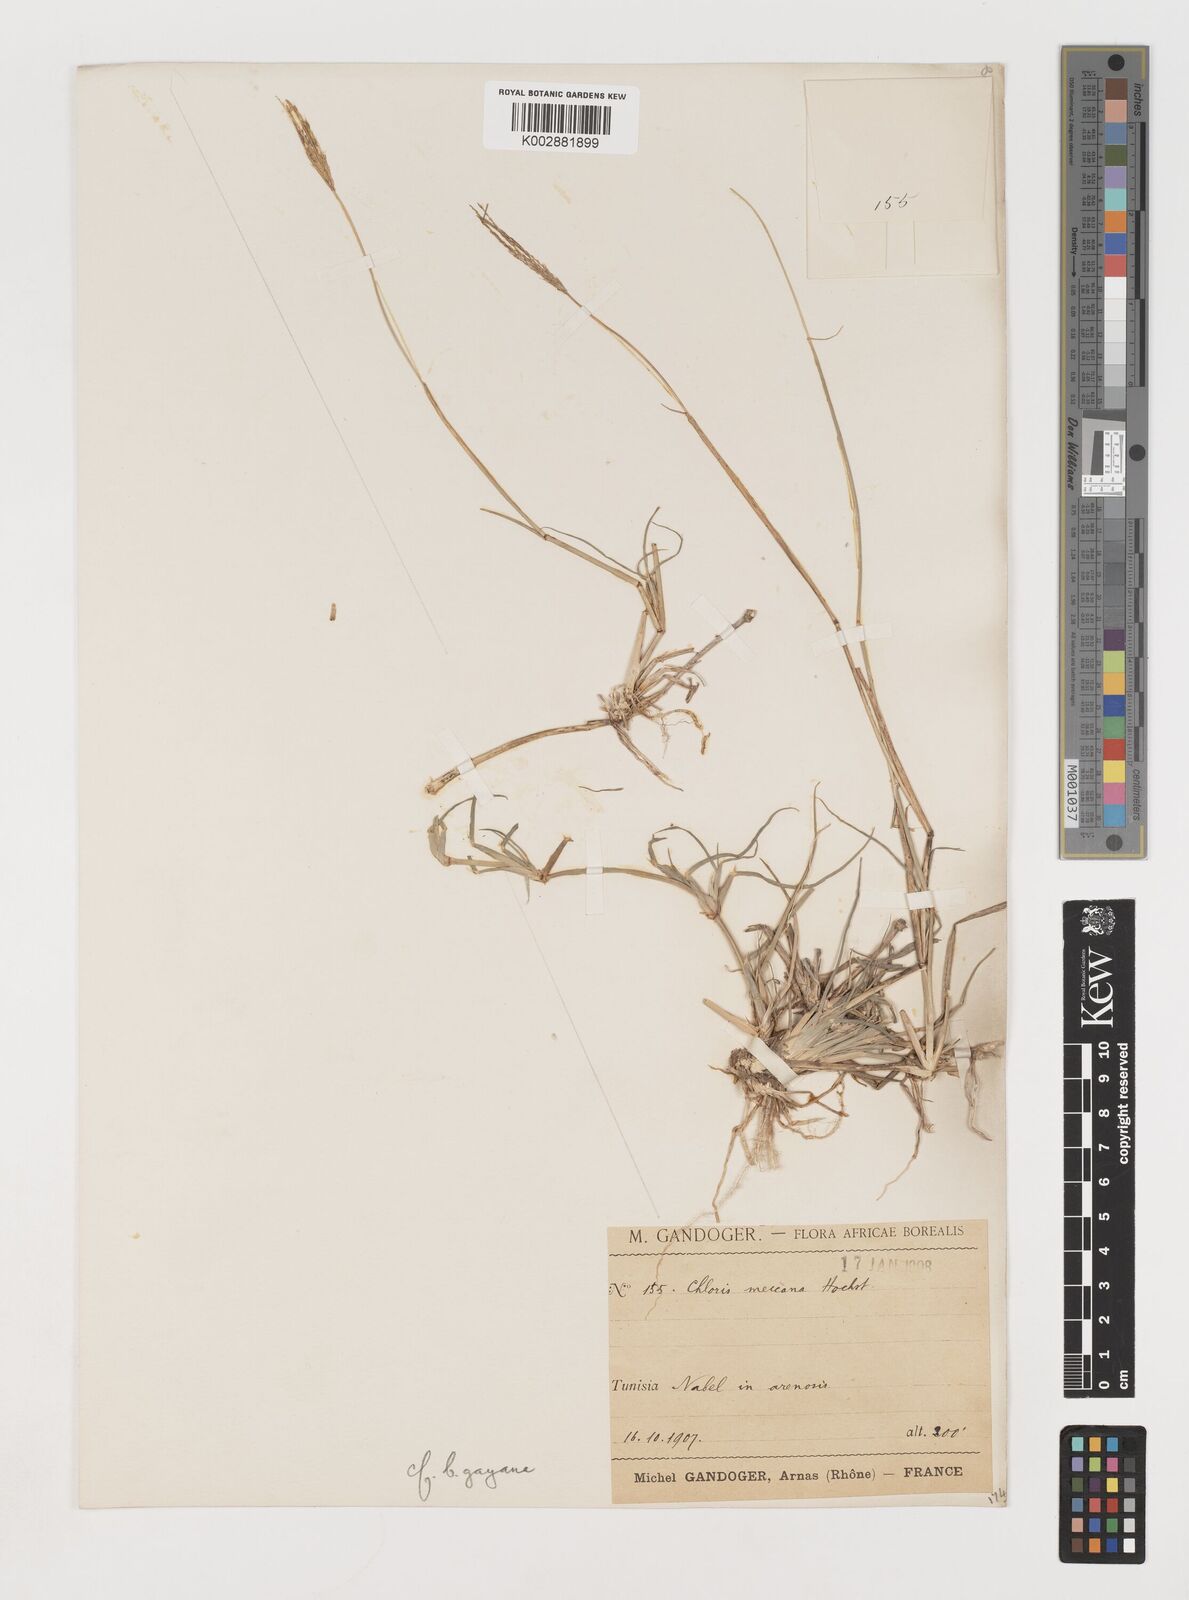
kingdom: Plantae
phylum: Tracheophyta
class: Liliopsida
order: Poales
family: Poaceae
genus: Chloris
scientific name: Chloris
